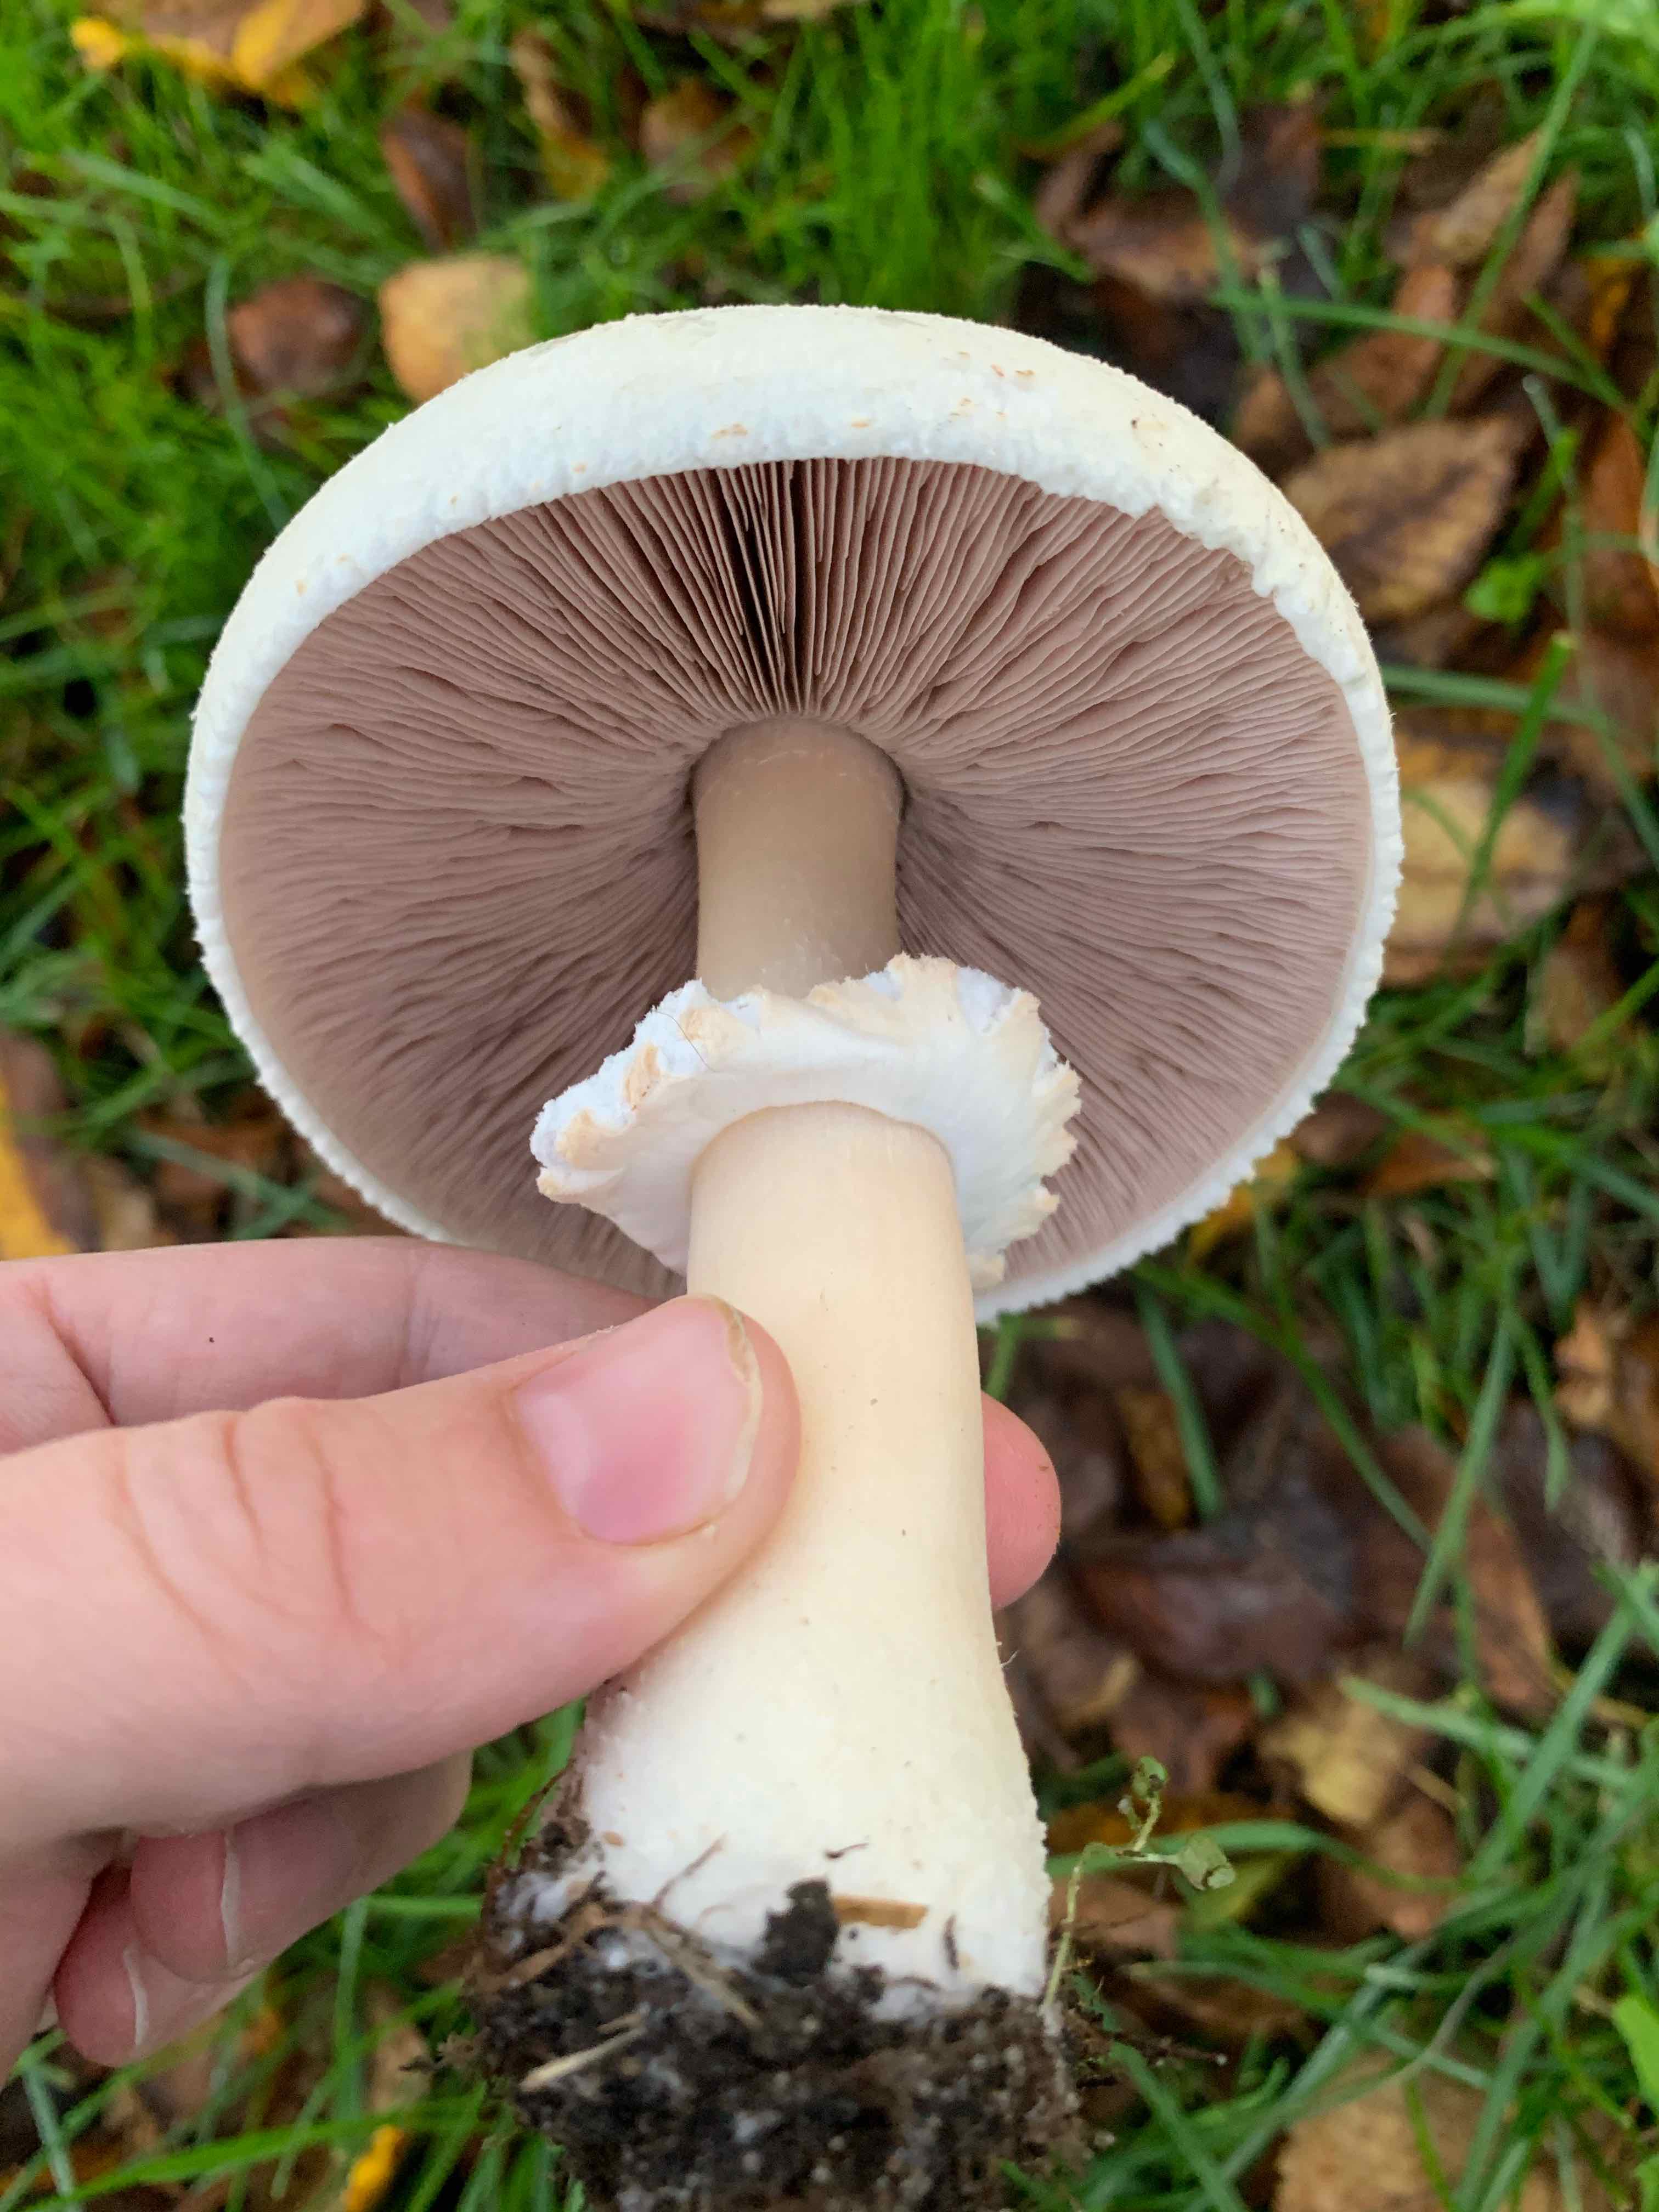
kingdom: Fungi
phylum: Basidiomycota
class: Agaricomycetes
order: Agaricales
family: Agaricaceae
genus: Agaricus
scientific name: Agaricus arvensis
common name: ager-champignon
